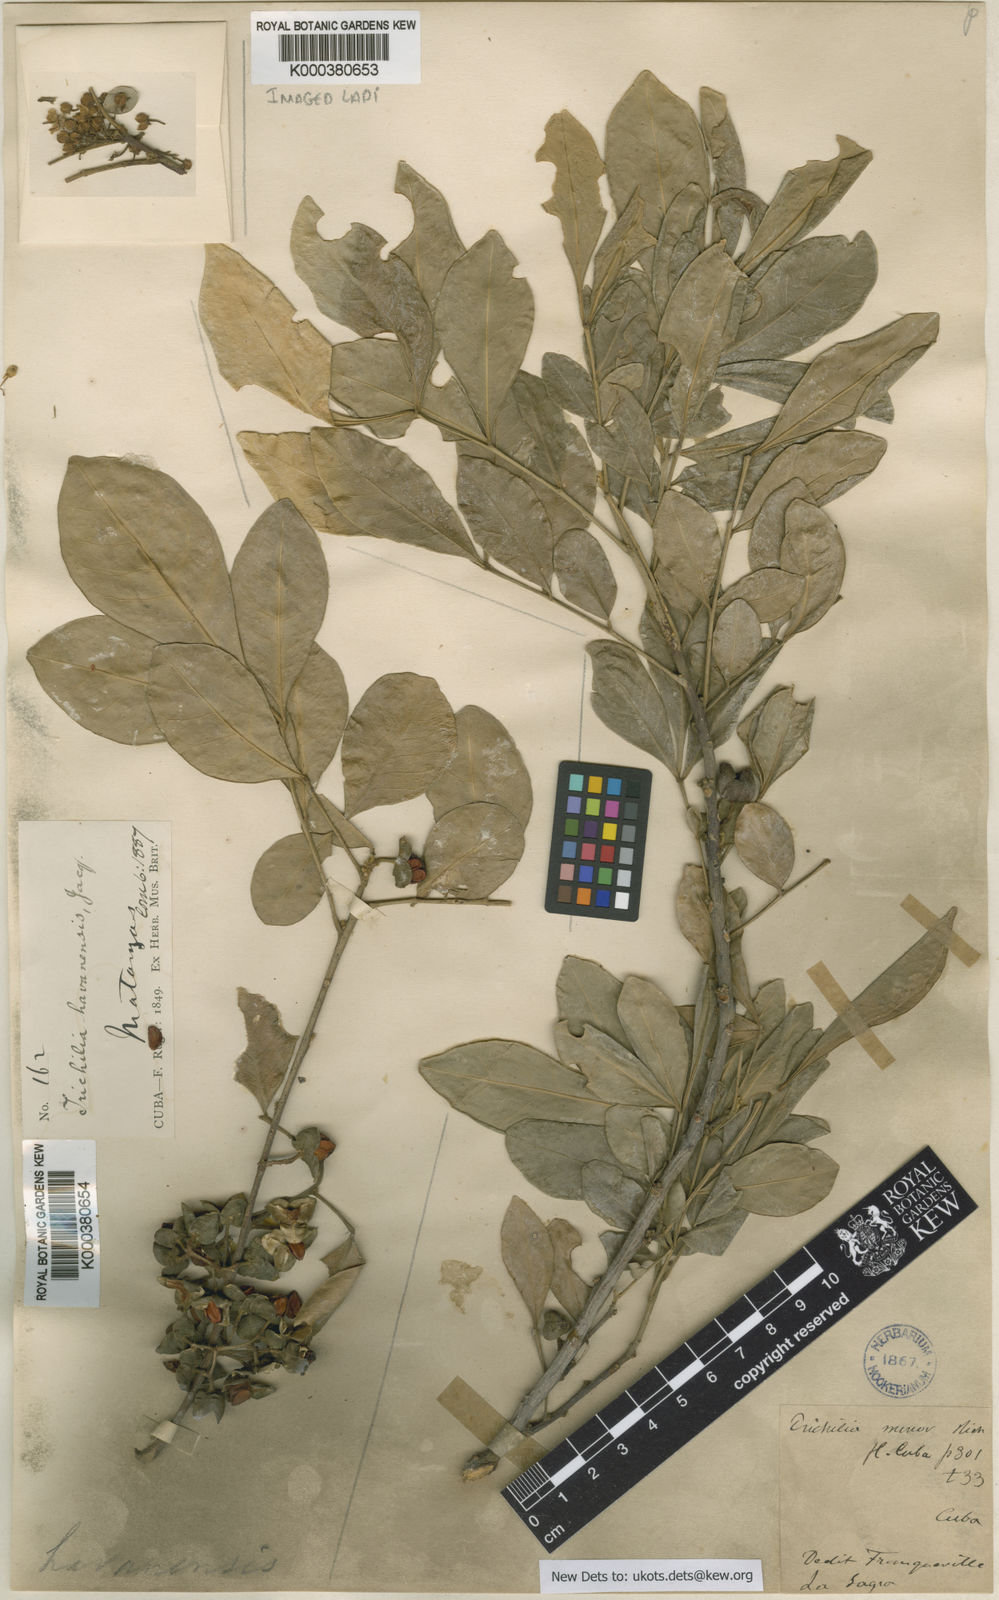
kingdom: Plantae
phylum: Tracheophyta
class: Magnoliopsida
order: Sapindales
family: Meliaceae
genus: Trichilia
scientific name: Trichilia havanensis
